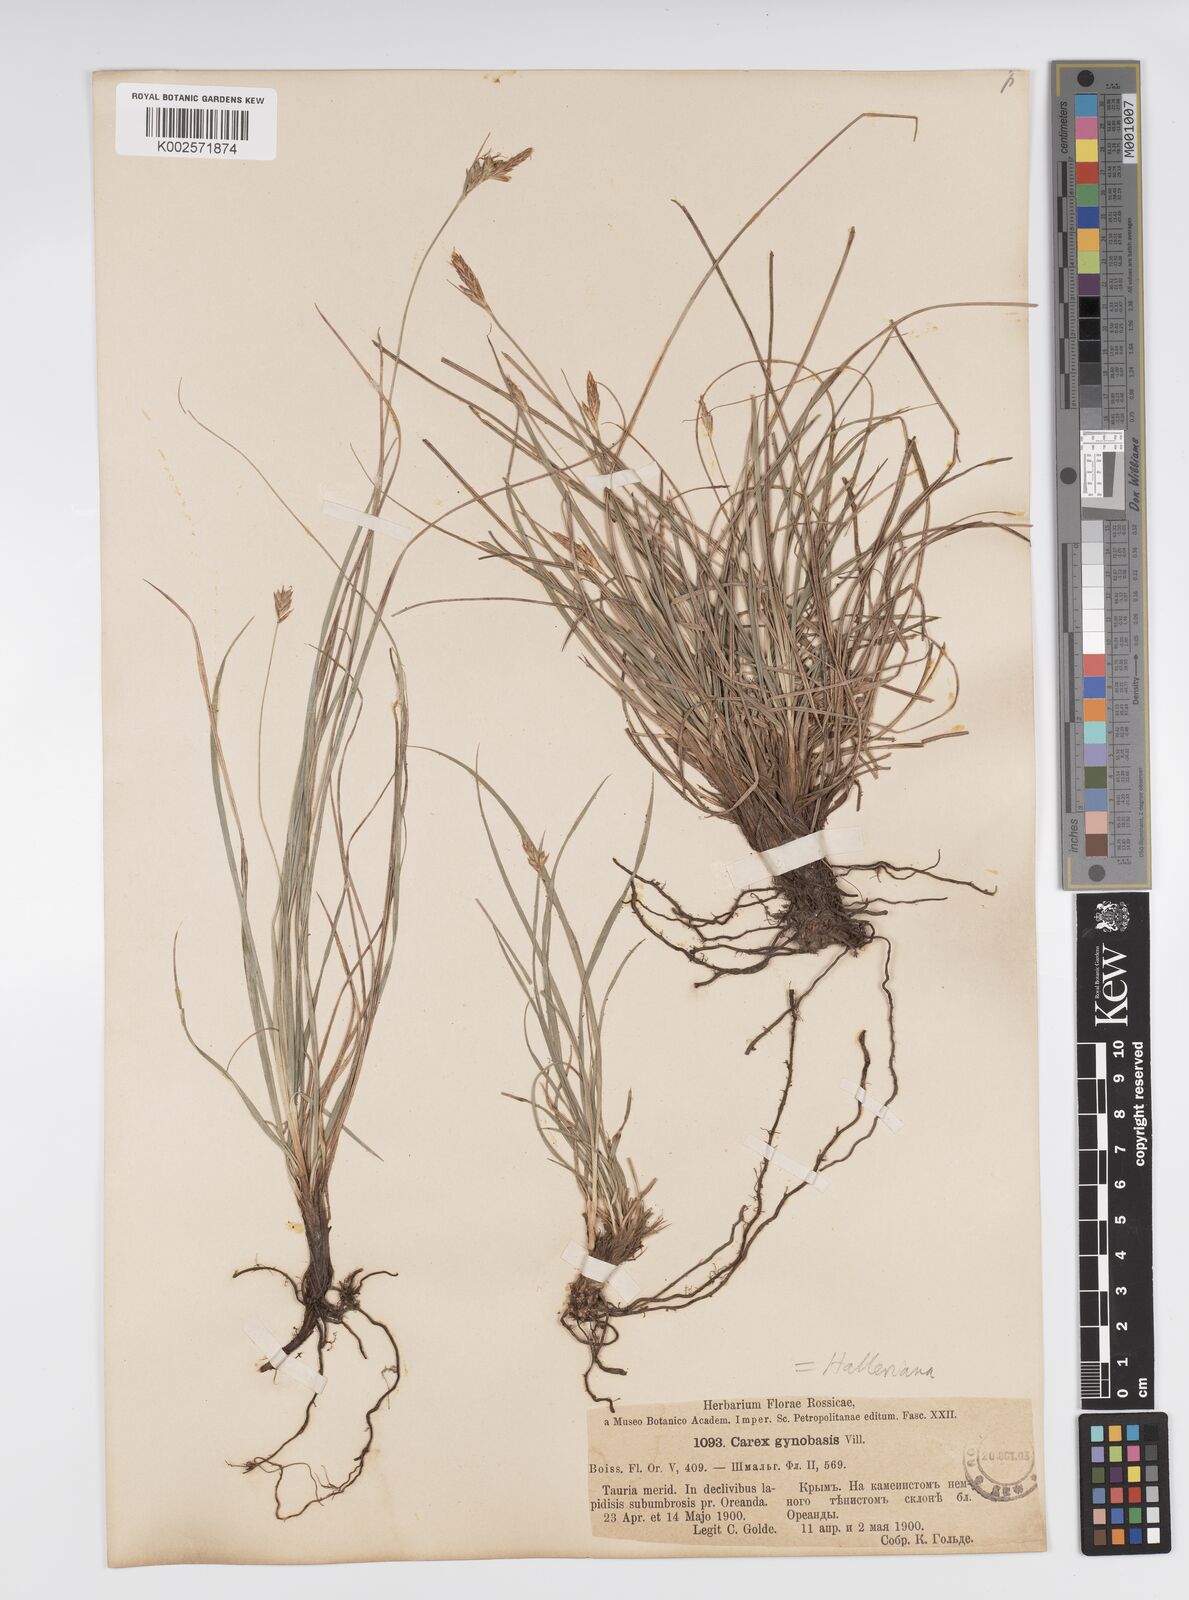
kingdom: Plantae
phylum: Tracheophyta
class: Liliopsida
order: Poales
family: Cyperaceae
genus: Carex
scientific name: Carex halleriana
